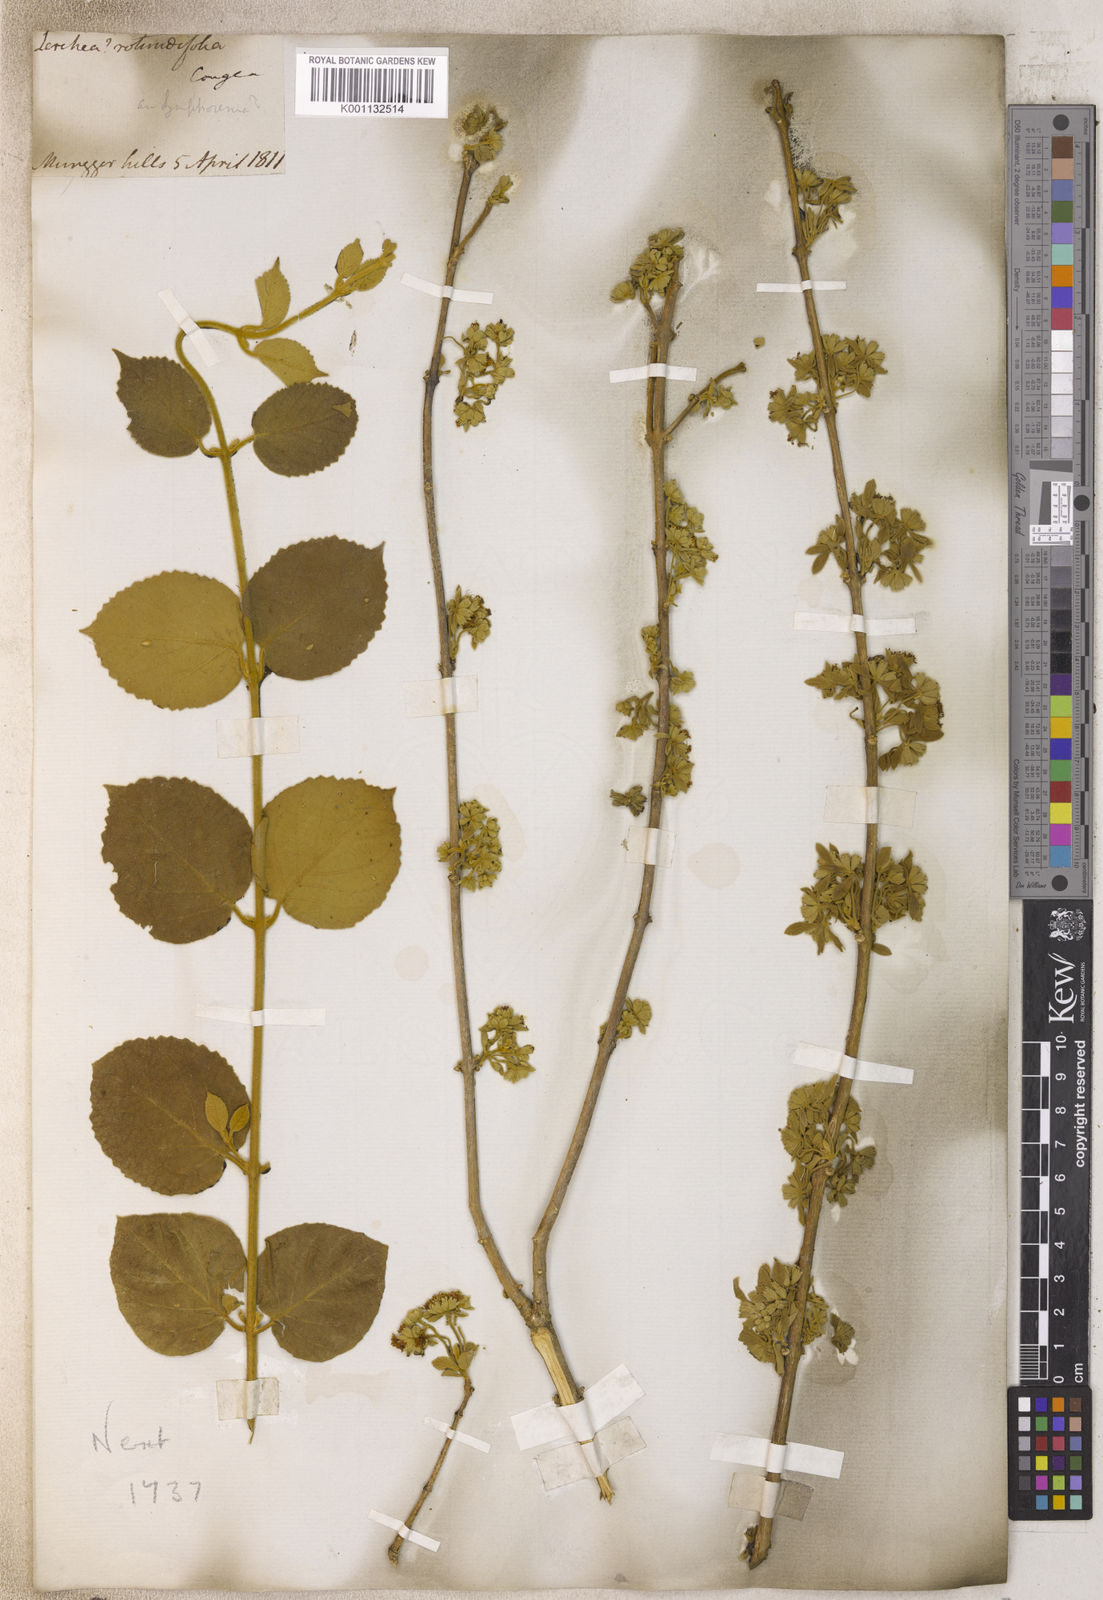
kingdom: Plantae
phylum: Tracheophyta
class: Magnoliopsida
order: Lamiales
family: Lamiaceae
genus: Congea
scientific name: Congea
